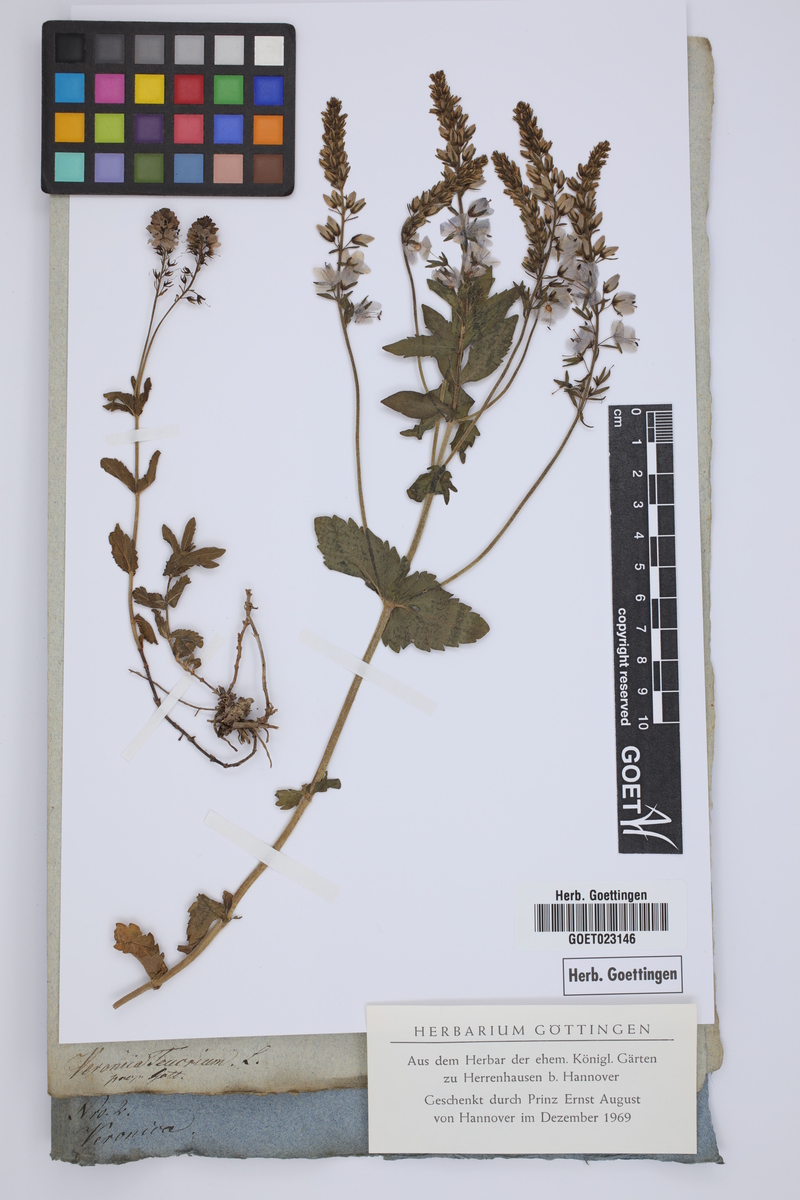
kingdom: Plantae
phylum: Tracheophyta
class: Magnoliopsida
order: Lamiales
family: Plantaginaceae
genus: Veronica
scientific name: Veronica teucrium
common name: Large speedwell
